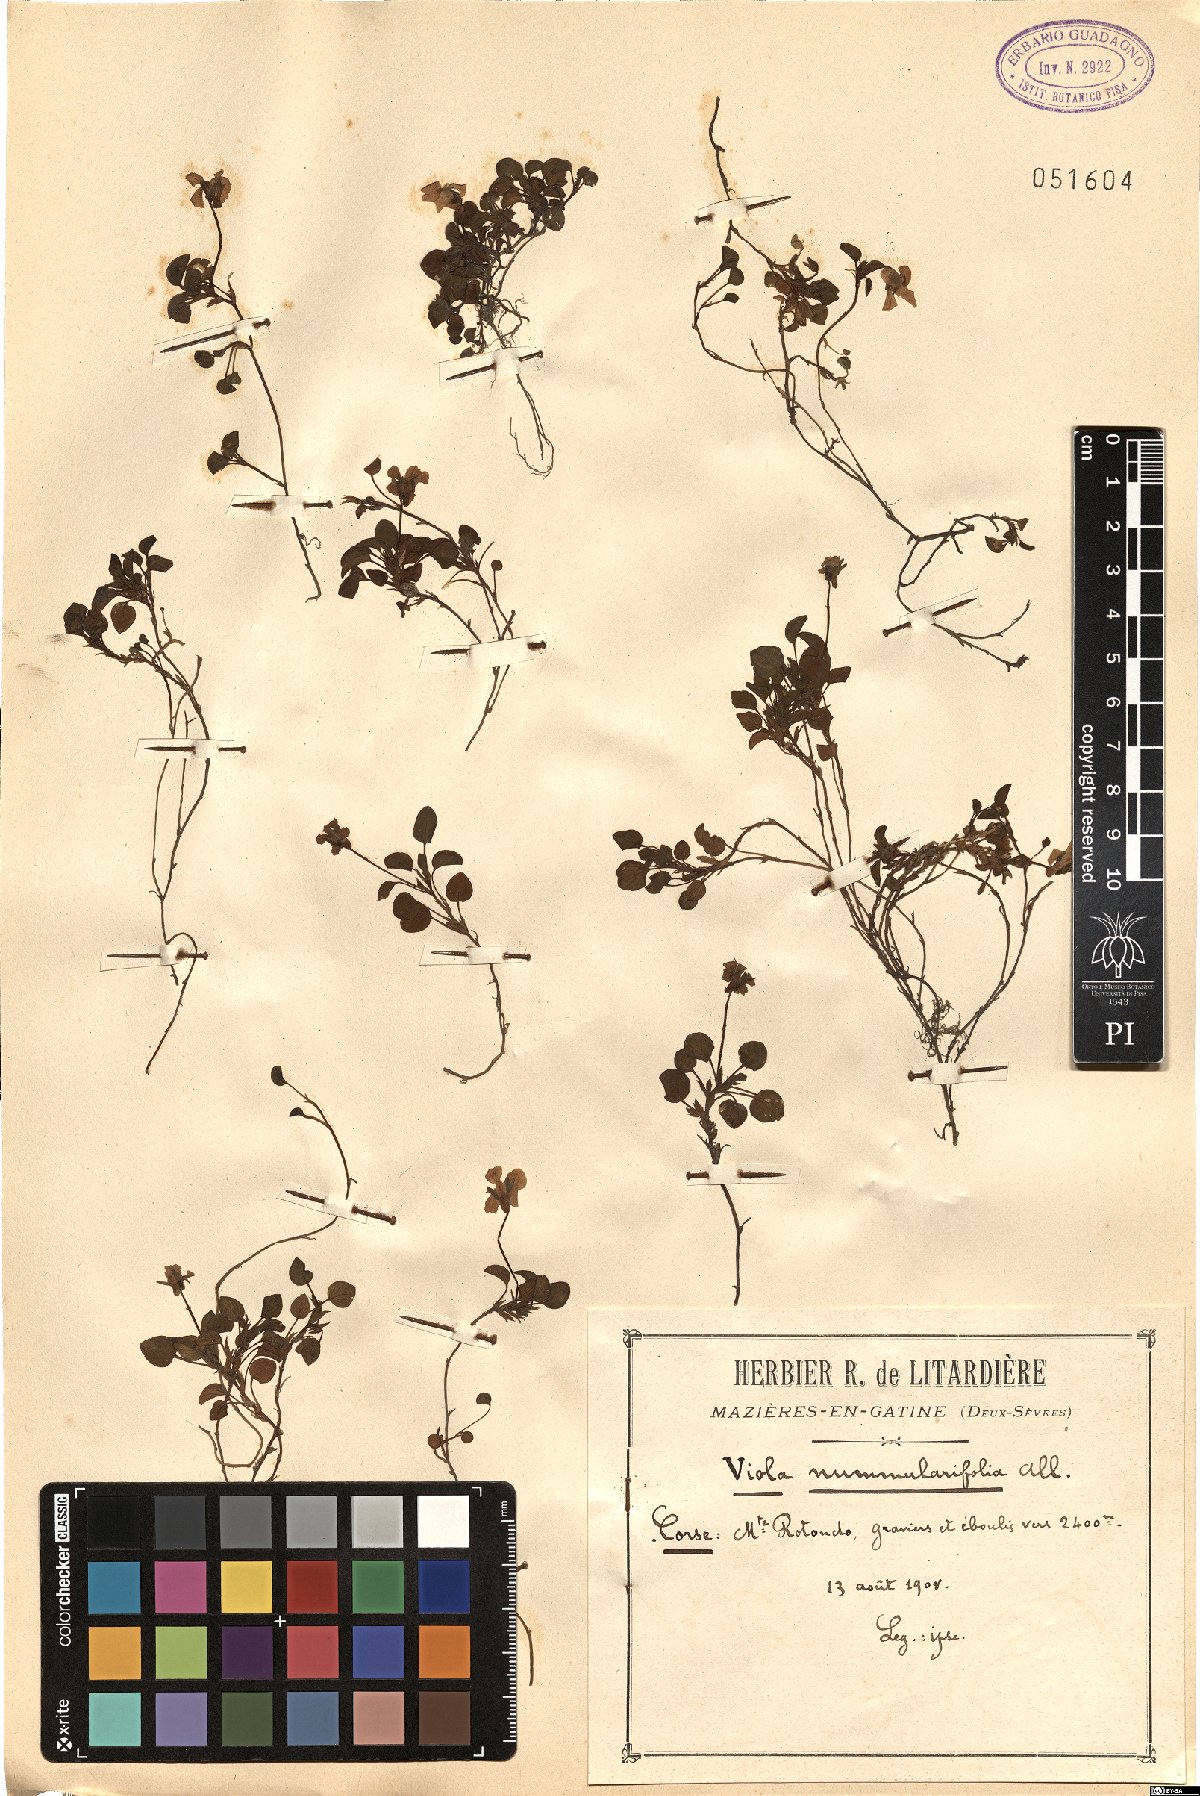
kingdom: Plantae
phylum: Tracheophyta
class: Magnoliopsida
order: Malpighiales
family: Violaceae
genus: Viola
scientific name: Viola nummulariifolia
